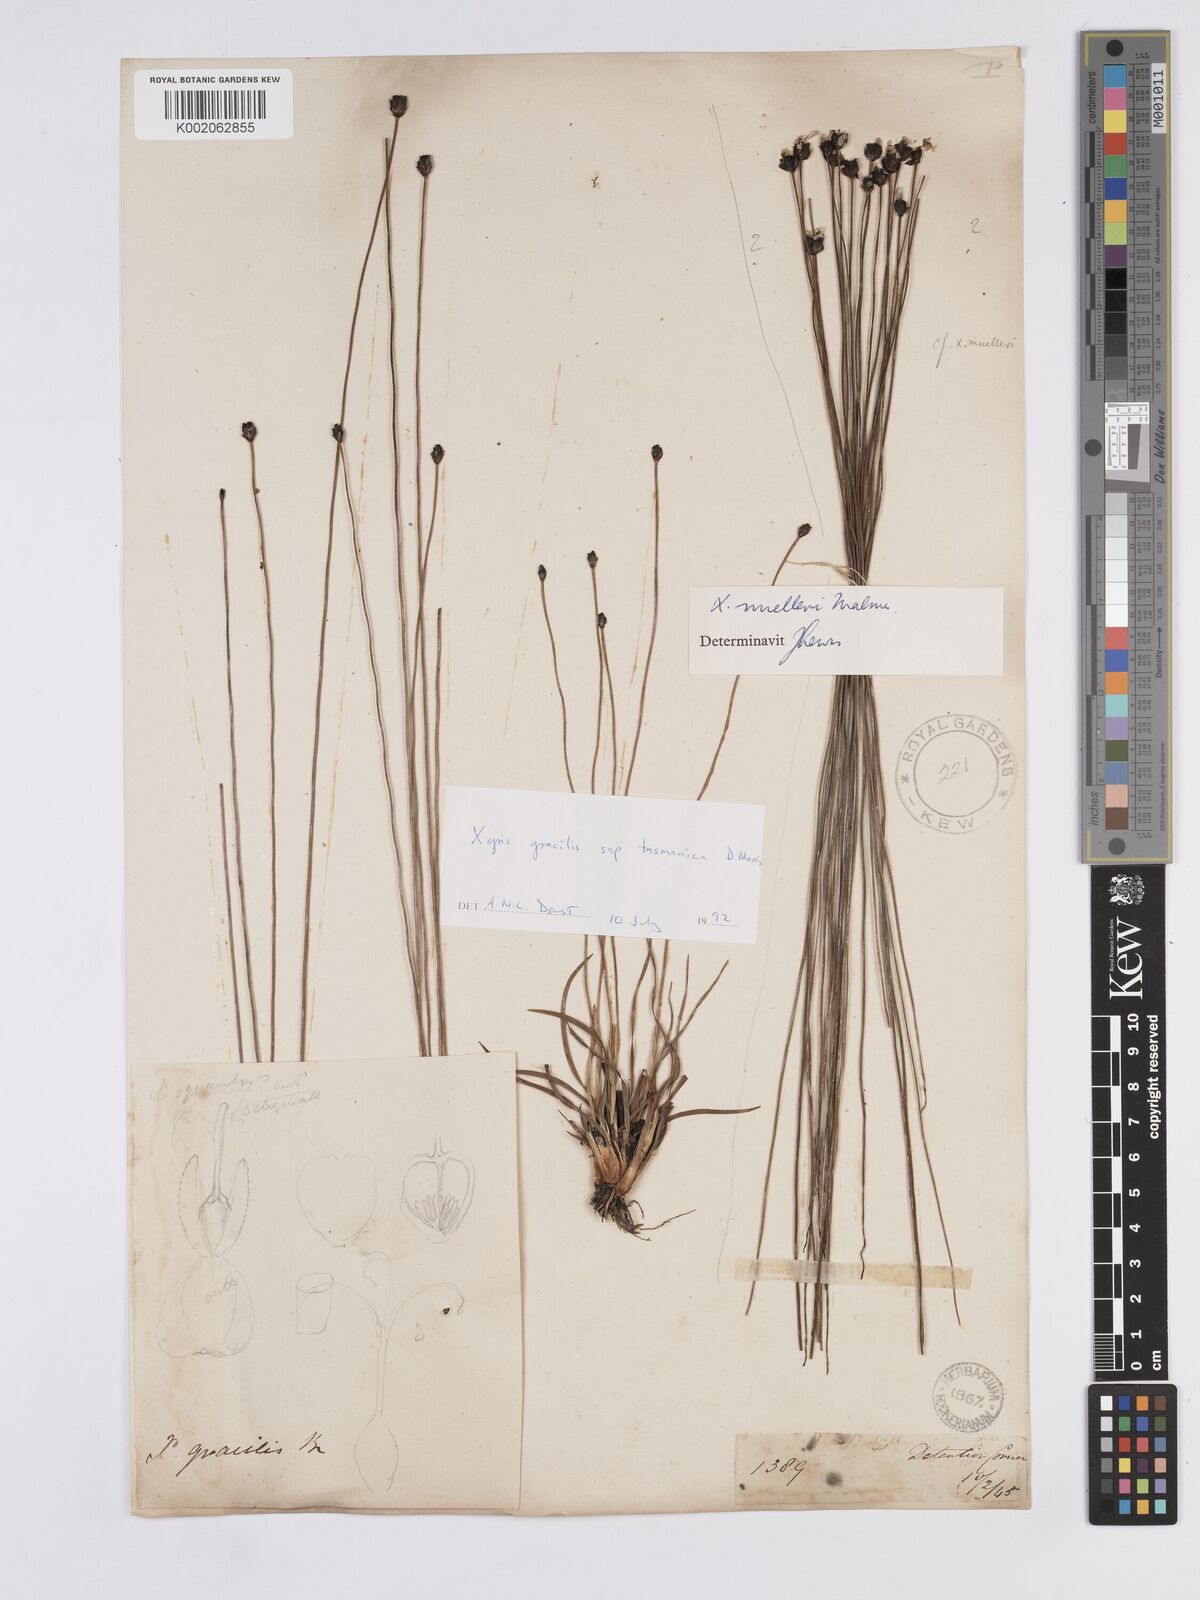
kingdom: Plantae
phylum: Tracheophyta
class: Liliopsida
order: Poales
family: Xyridaceae
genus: Xyris
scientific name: Xyris tasmanica
